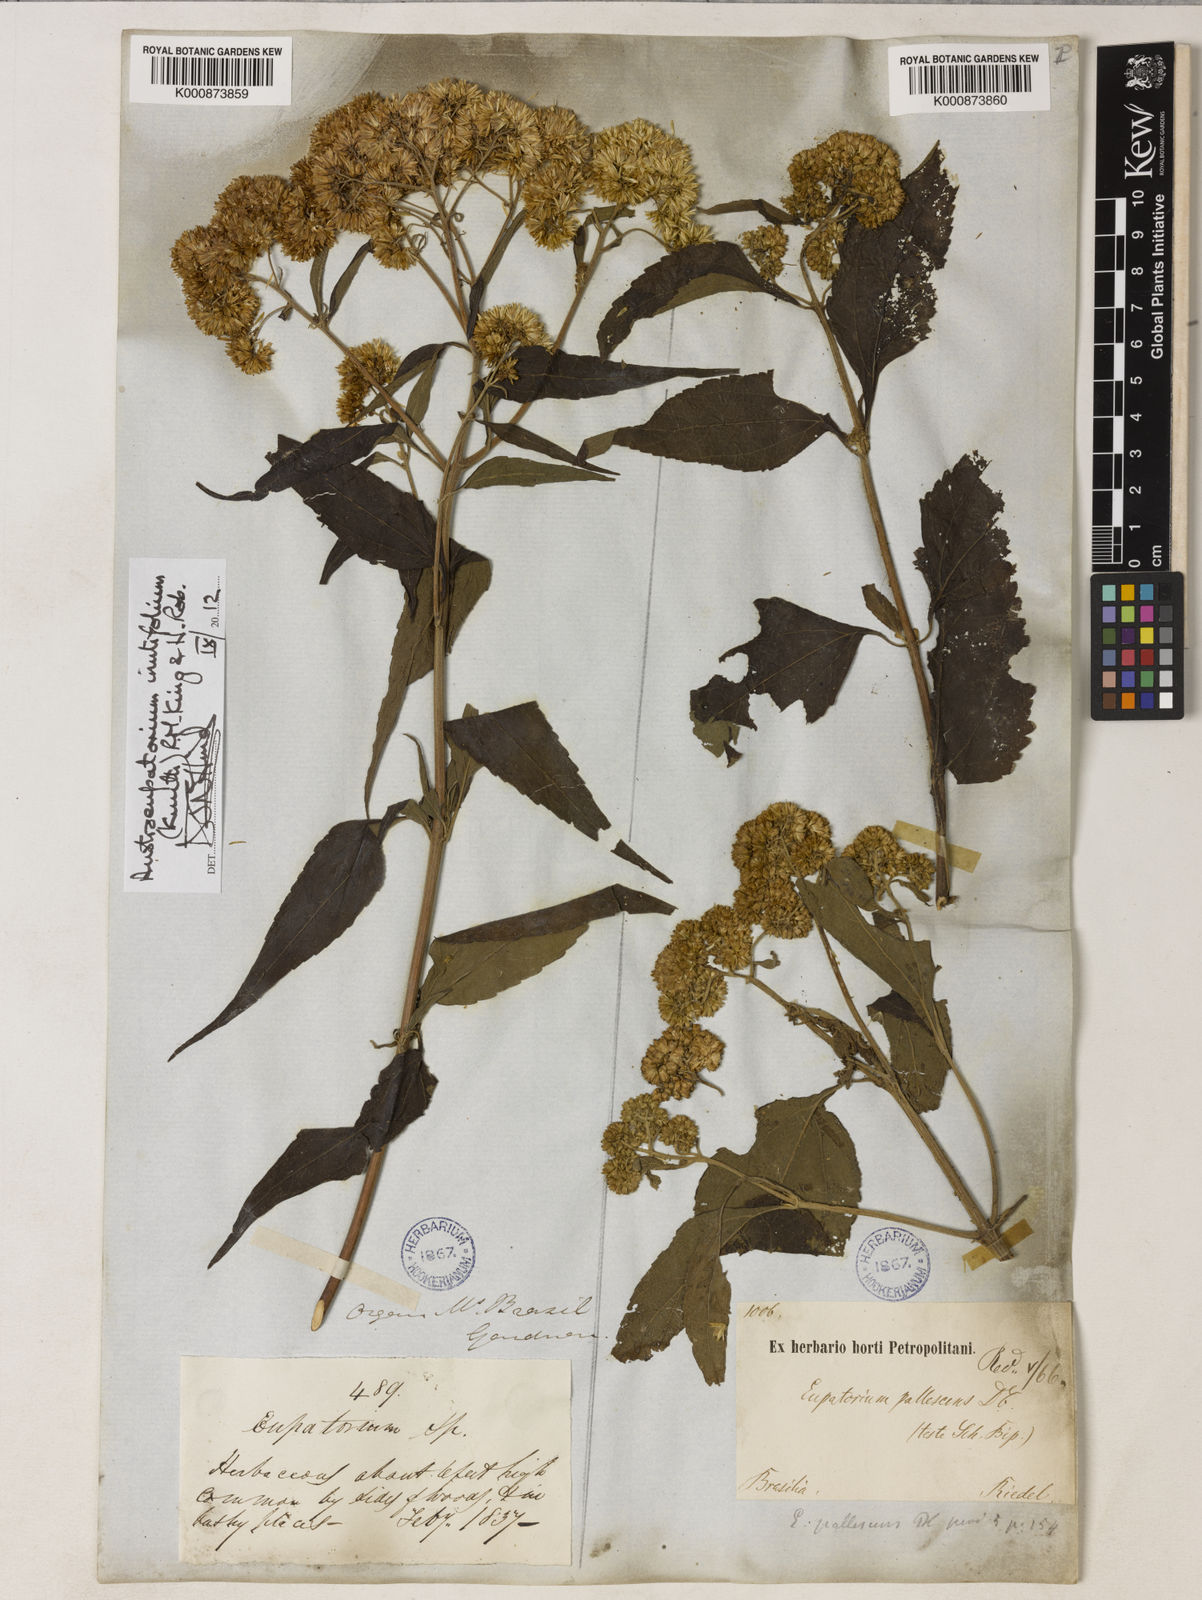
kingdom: Plantae
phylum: Tracheophyta
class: Magnoliopsida
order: Asterales
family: Asteraceae
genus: Austroeupatorium
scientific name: Austroeupatorium inulifolium
